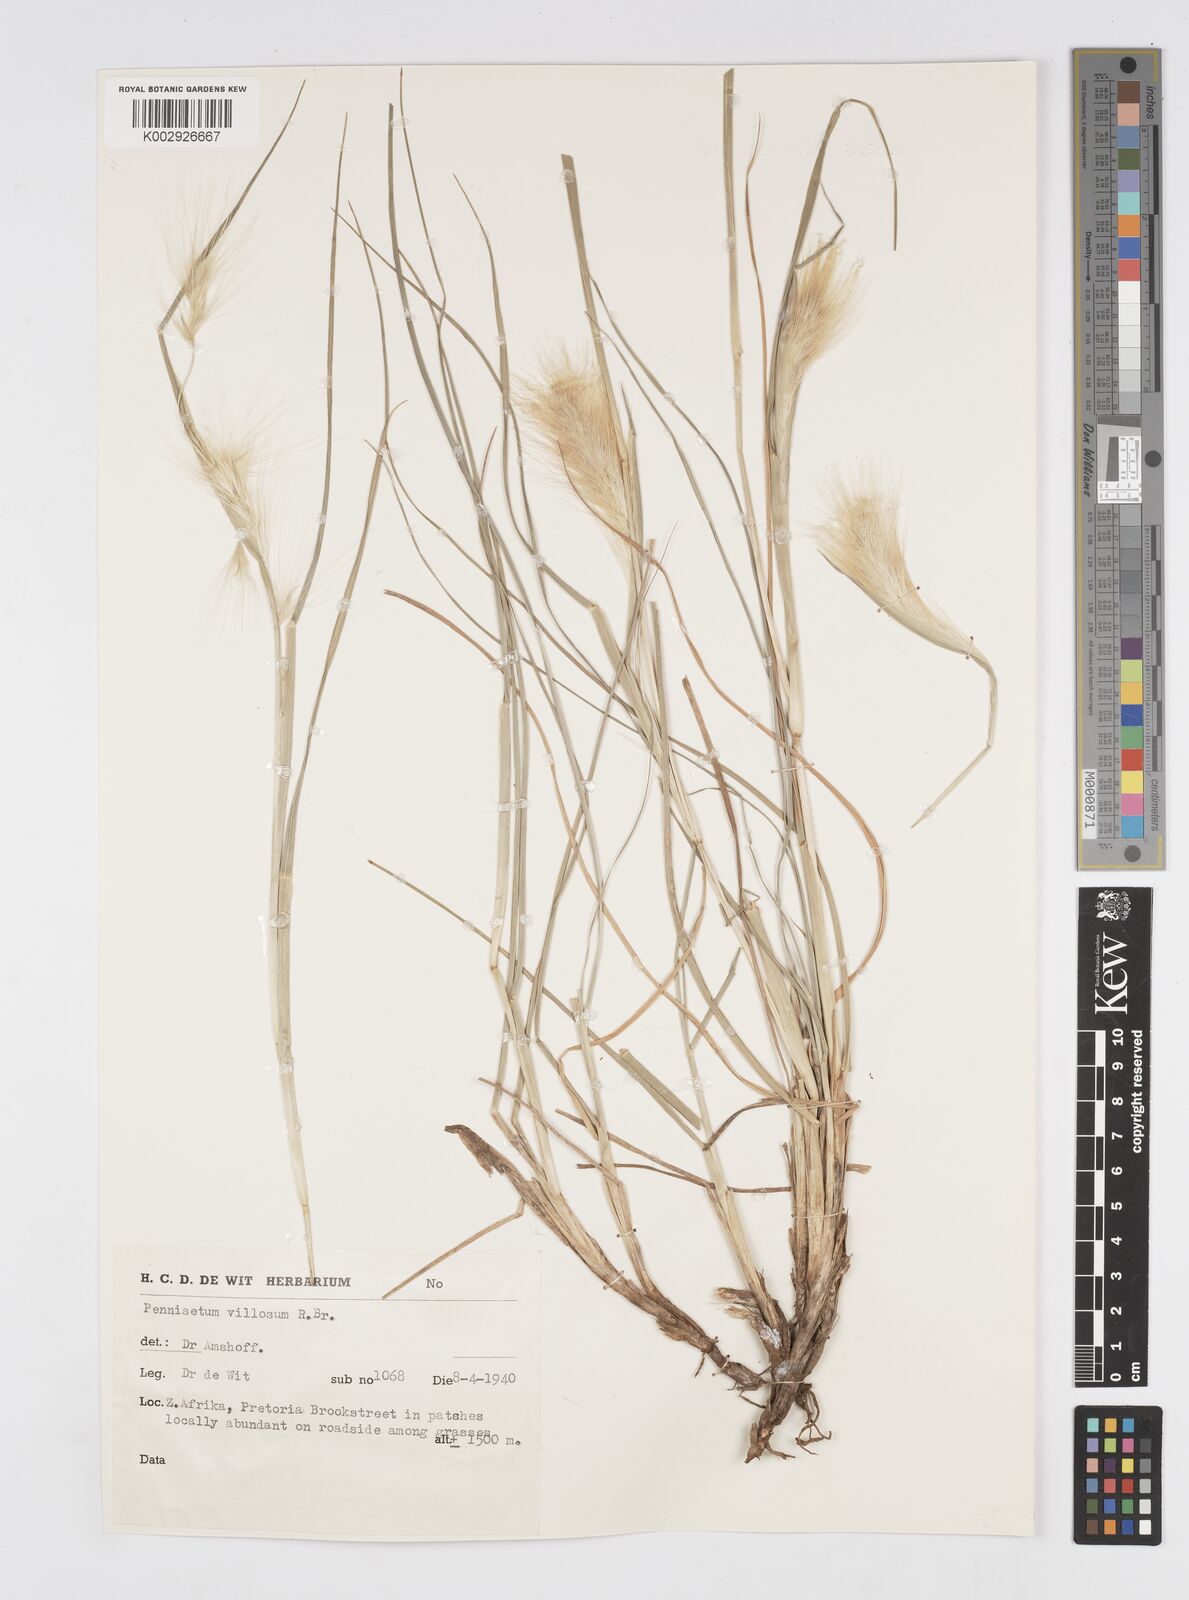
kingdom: Plantae
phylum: Tracheophyta
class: Liliopsida
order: Poales
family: Poaceae
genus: Cenchrus
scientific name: Cenchrus longisetus
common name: Feathertop
